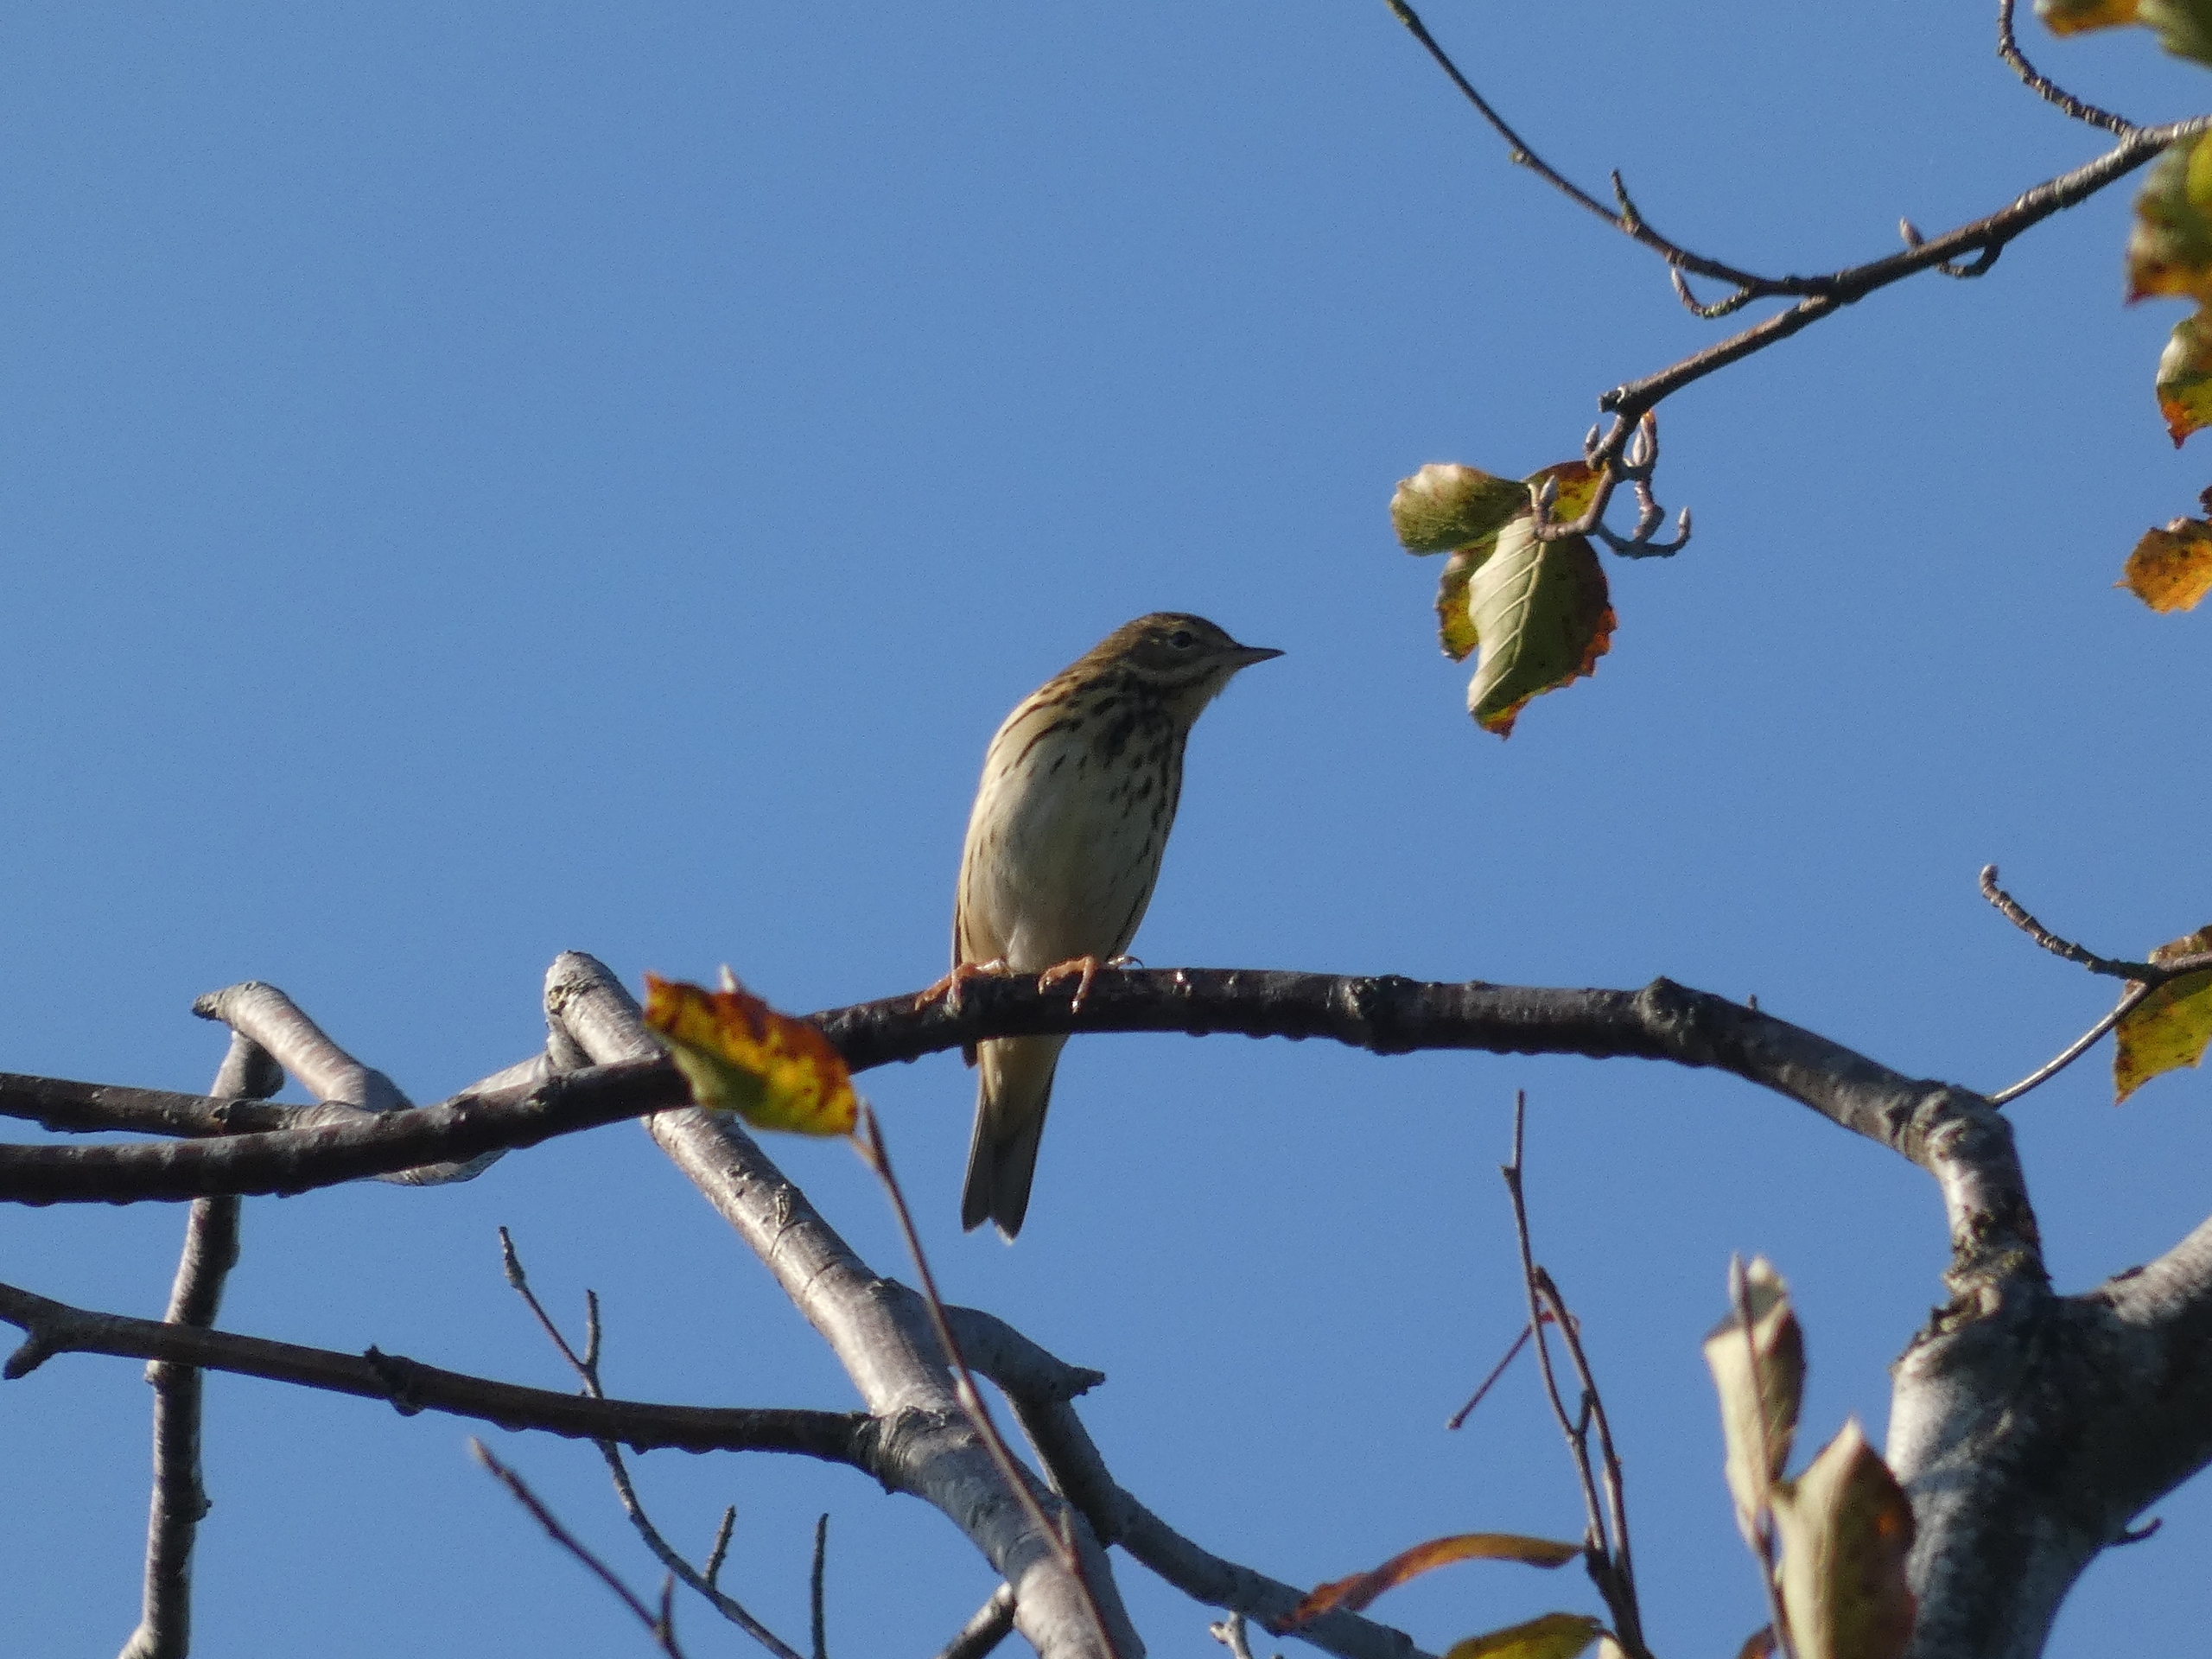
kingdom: Animalia
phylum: Chordata
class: Aves
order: Passeriformes
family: Motacillidae
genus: Anthus
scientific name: Anthus trivialis
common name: Skovpiber
